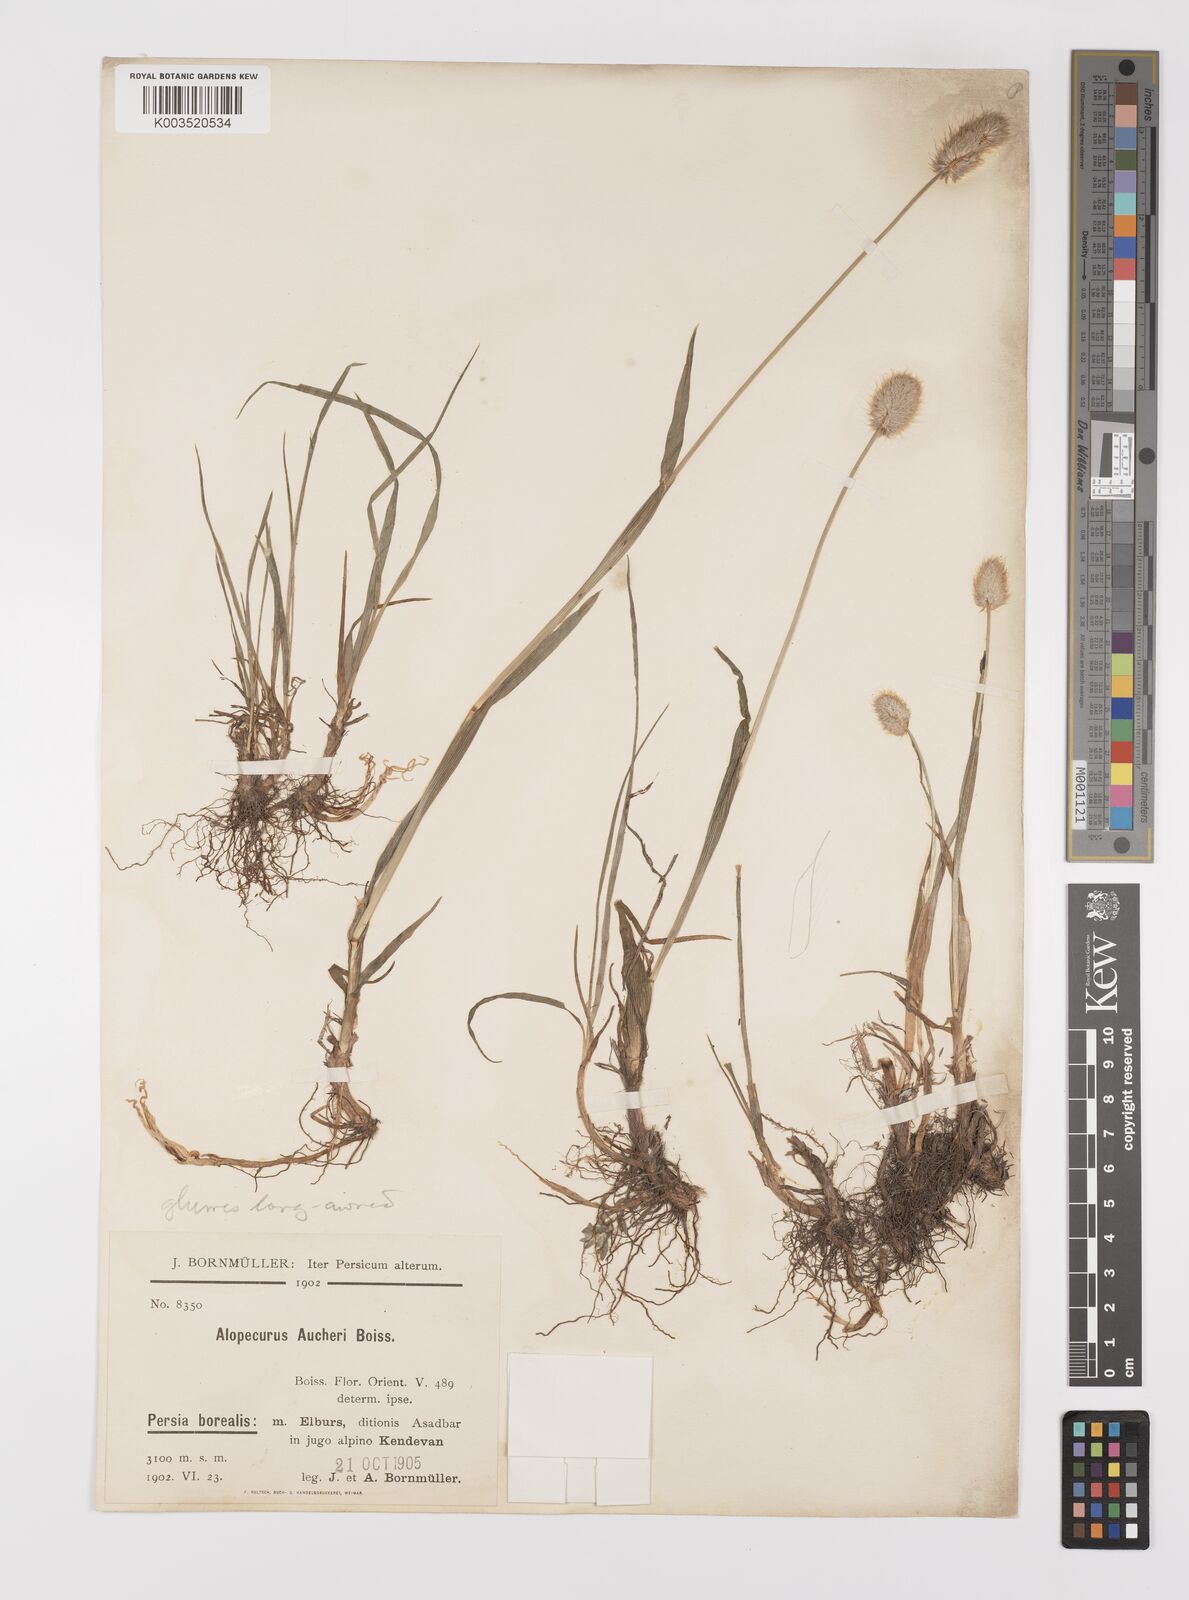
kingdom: Plantae
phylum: Tracheophyta
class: Liliopsida
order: Poales
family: Poaceae
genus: Alopecurus
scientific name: Alopecurus aucheri
